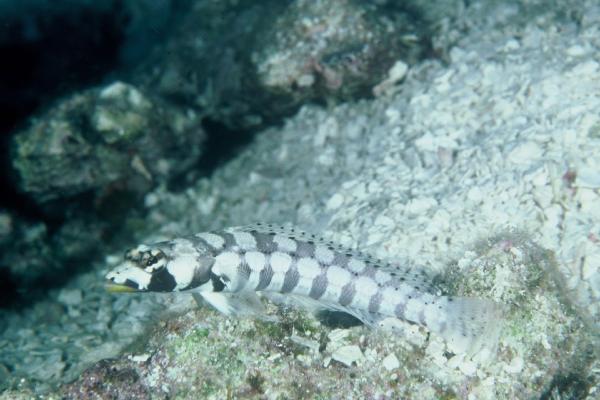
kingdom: Animalia
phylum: Chordata
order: Perciformes
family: Pinguipedidae
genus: Parapercis
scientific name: Parapercis tetracantha
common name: Black-banded grubfish
